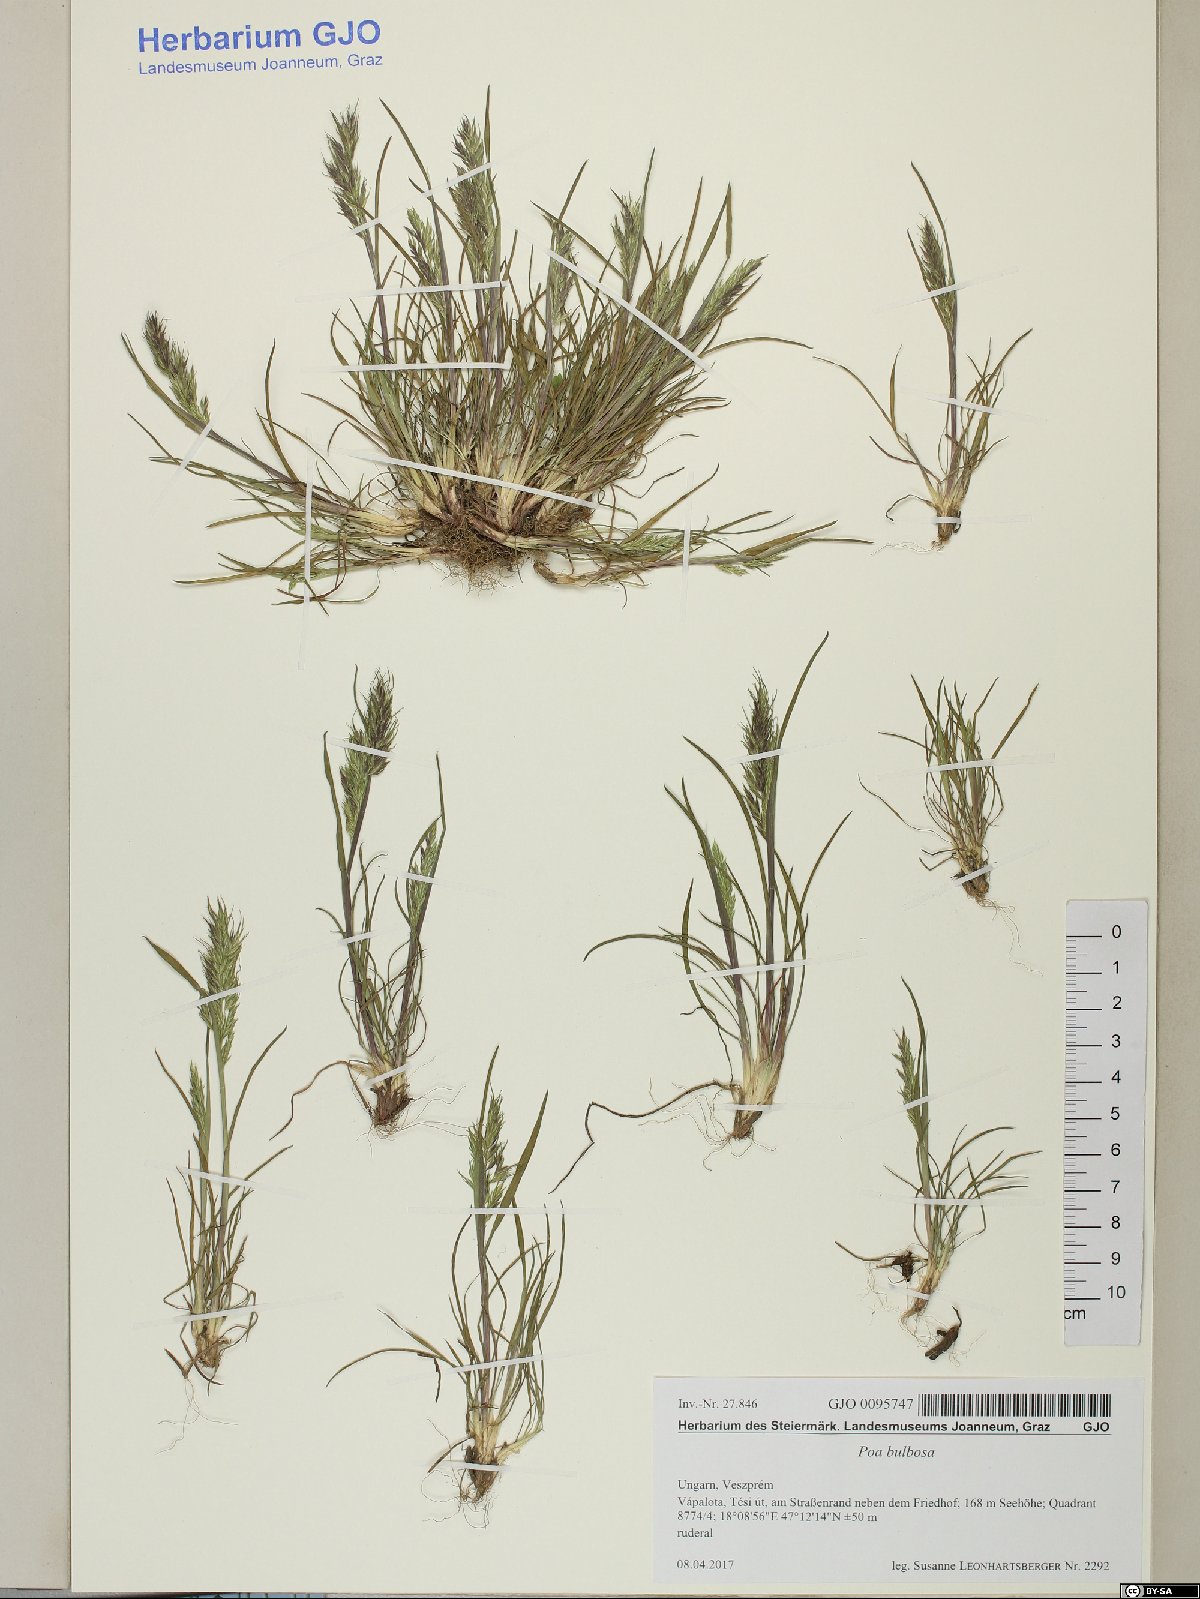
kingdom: Plantae
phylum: Tracheophyta
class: Liliopsida
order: Poales
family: Poaceae
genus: Poa
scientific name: Poa bulbosa
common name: Bulbous bluegrass
